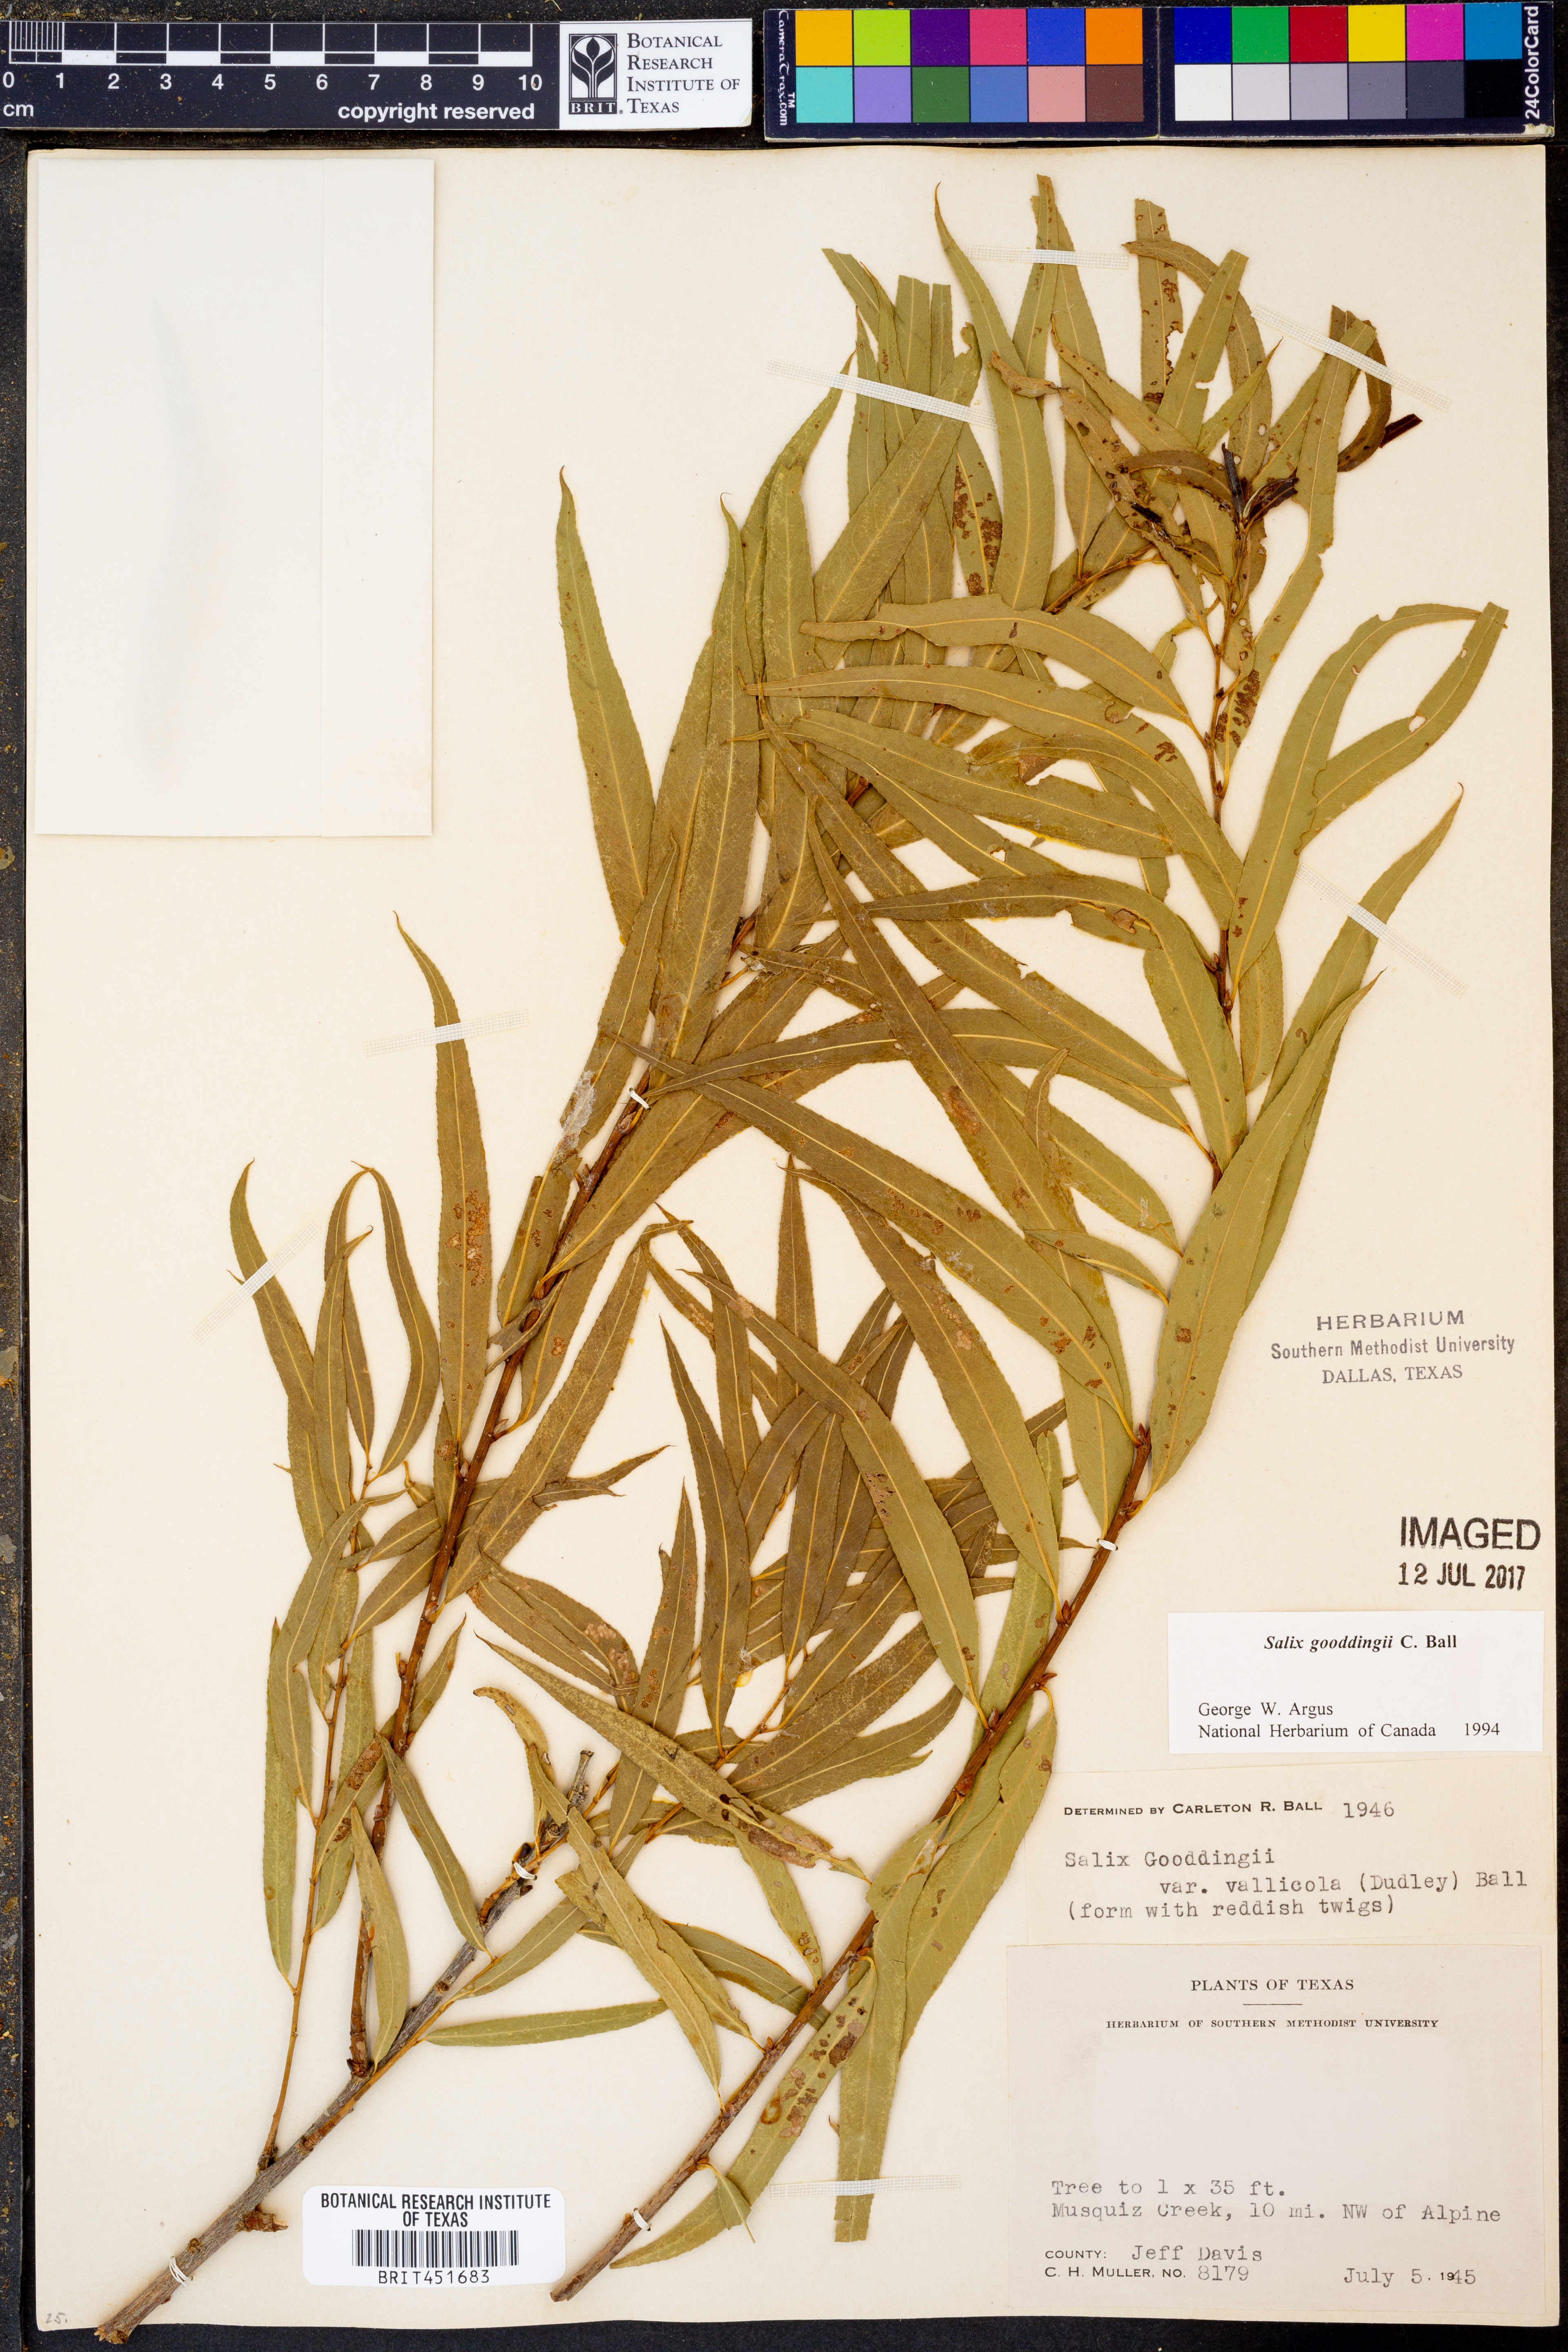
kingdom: Plantae
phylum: Tracheophyta
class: Magnoliopsida
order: Malpighiales
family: Salicaceae
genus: Salix
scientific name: Salix gooddingii
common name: Goodding's willow
